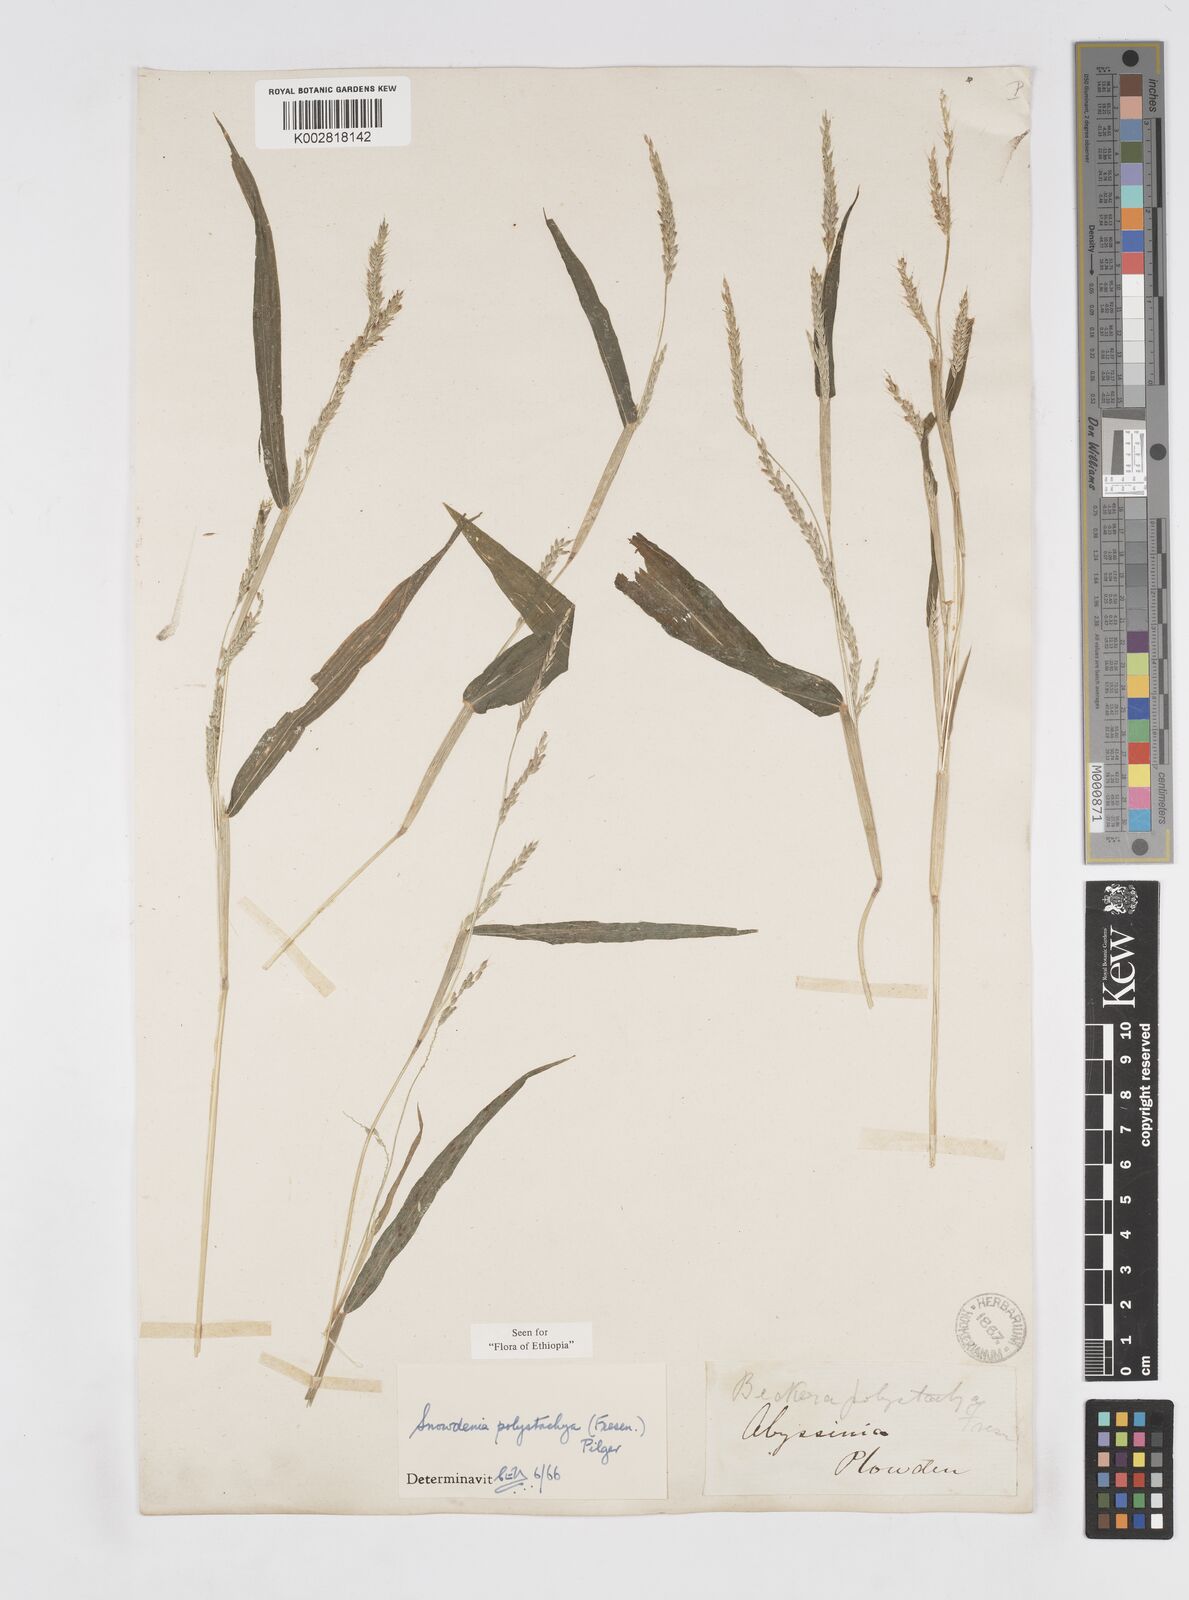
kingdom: Plantae
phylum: Tracheophyta
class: Liliopsida
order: Poales
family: Poaceae
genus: Snowdenia
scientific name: Snowdenia polystachya
